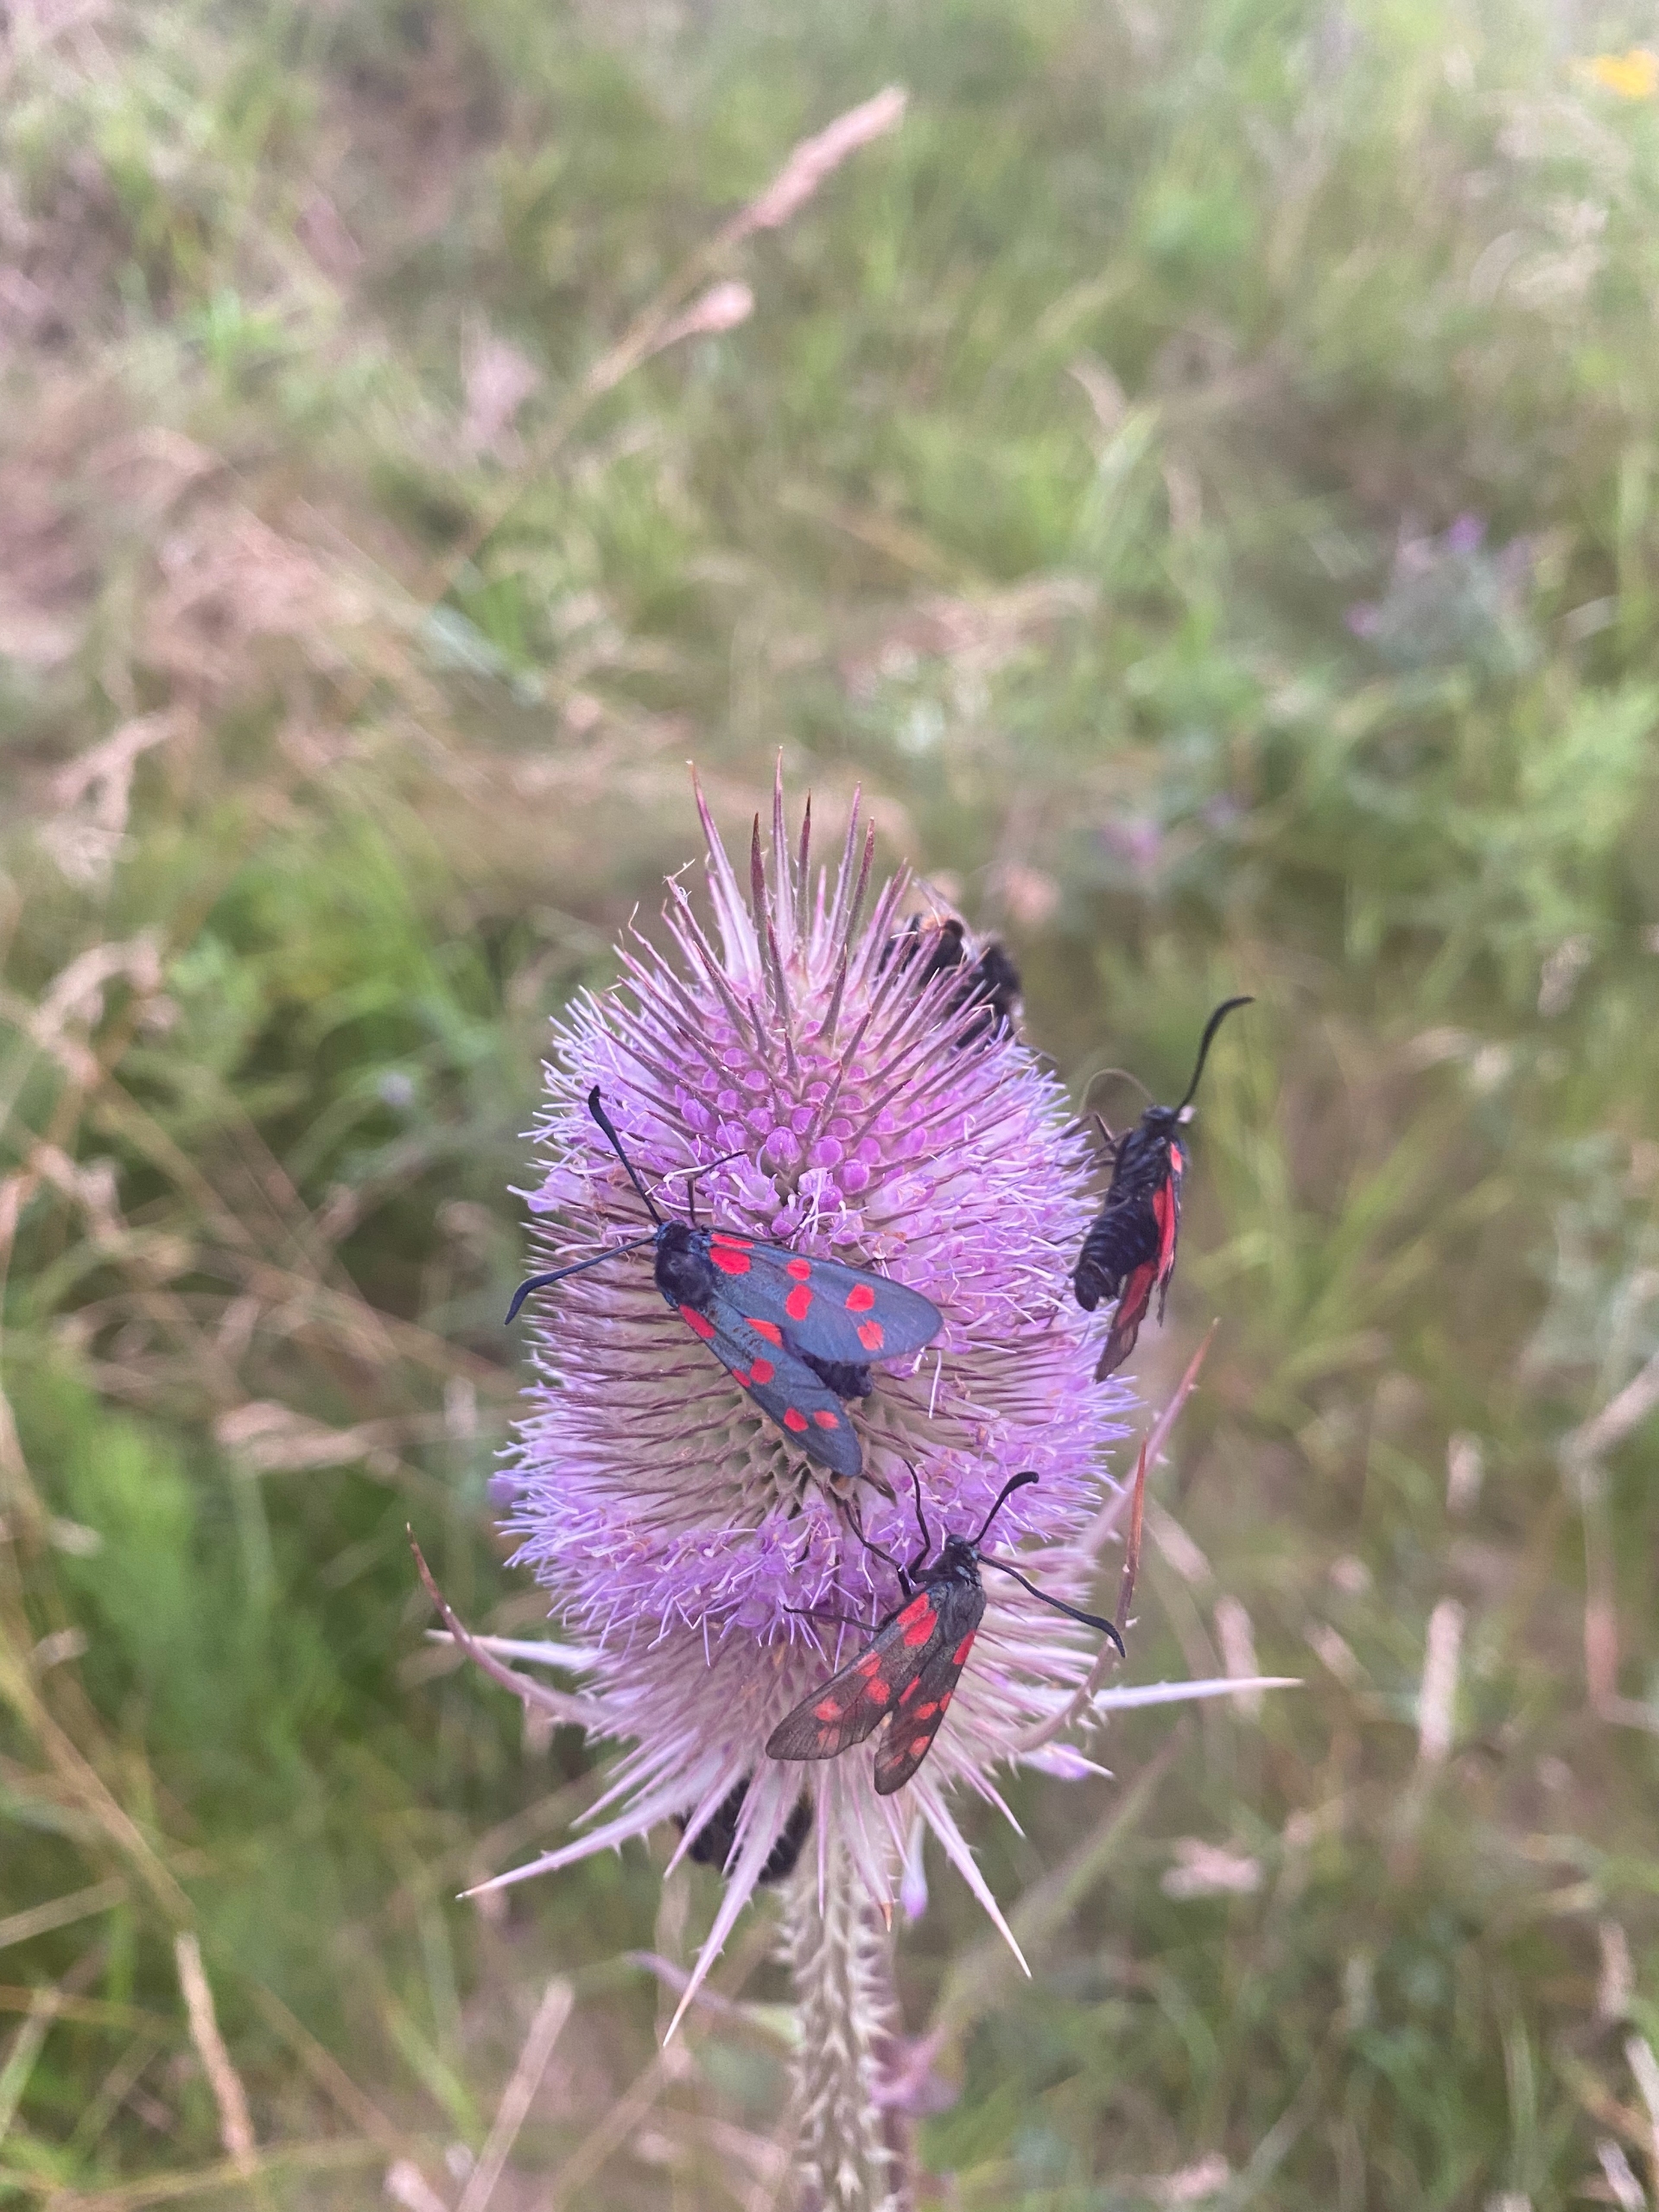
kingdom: Animalia
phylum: Arthropoda
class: Insecta
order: Lepidoptera
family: Zygaenidae
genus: Zygaena
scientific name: Zygaena filipendulae
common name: Seksplettet køllesværmer
